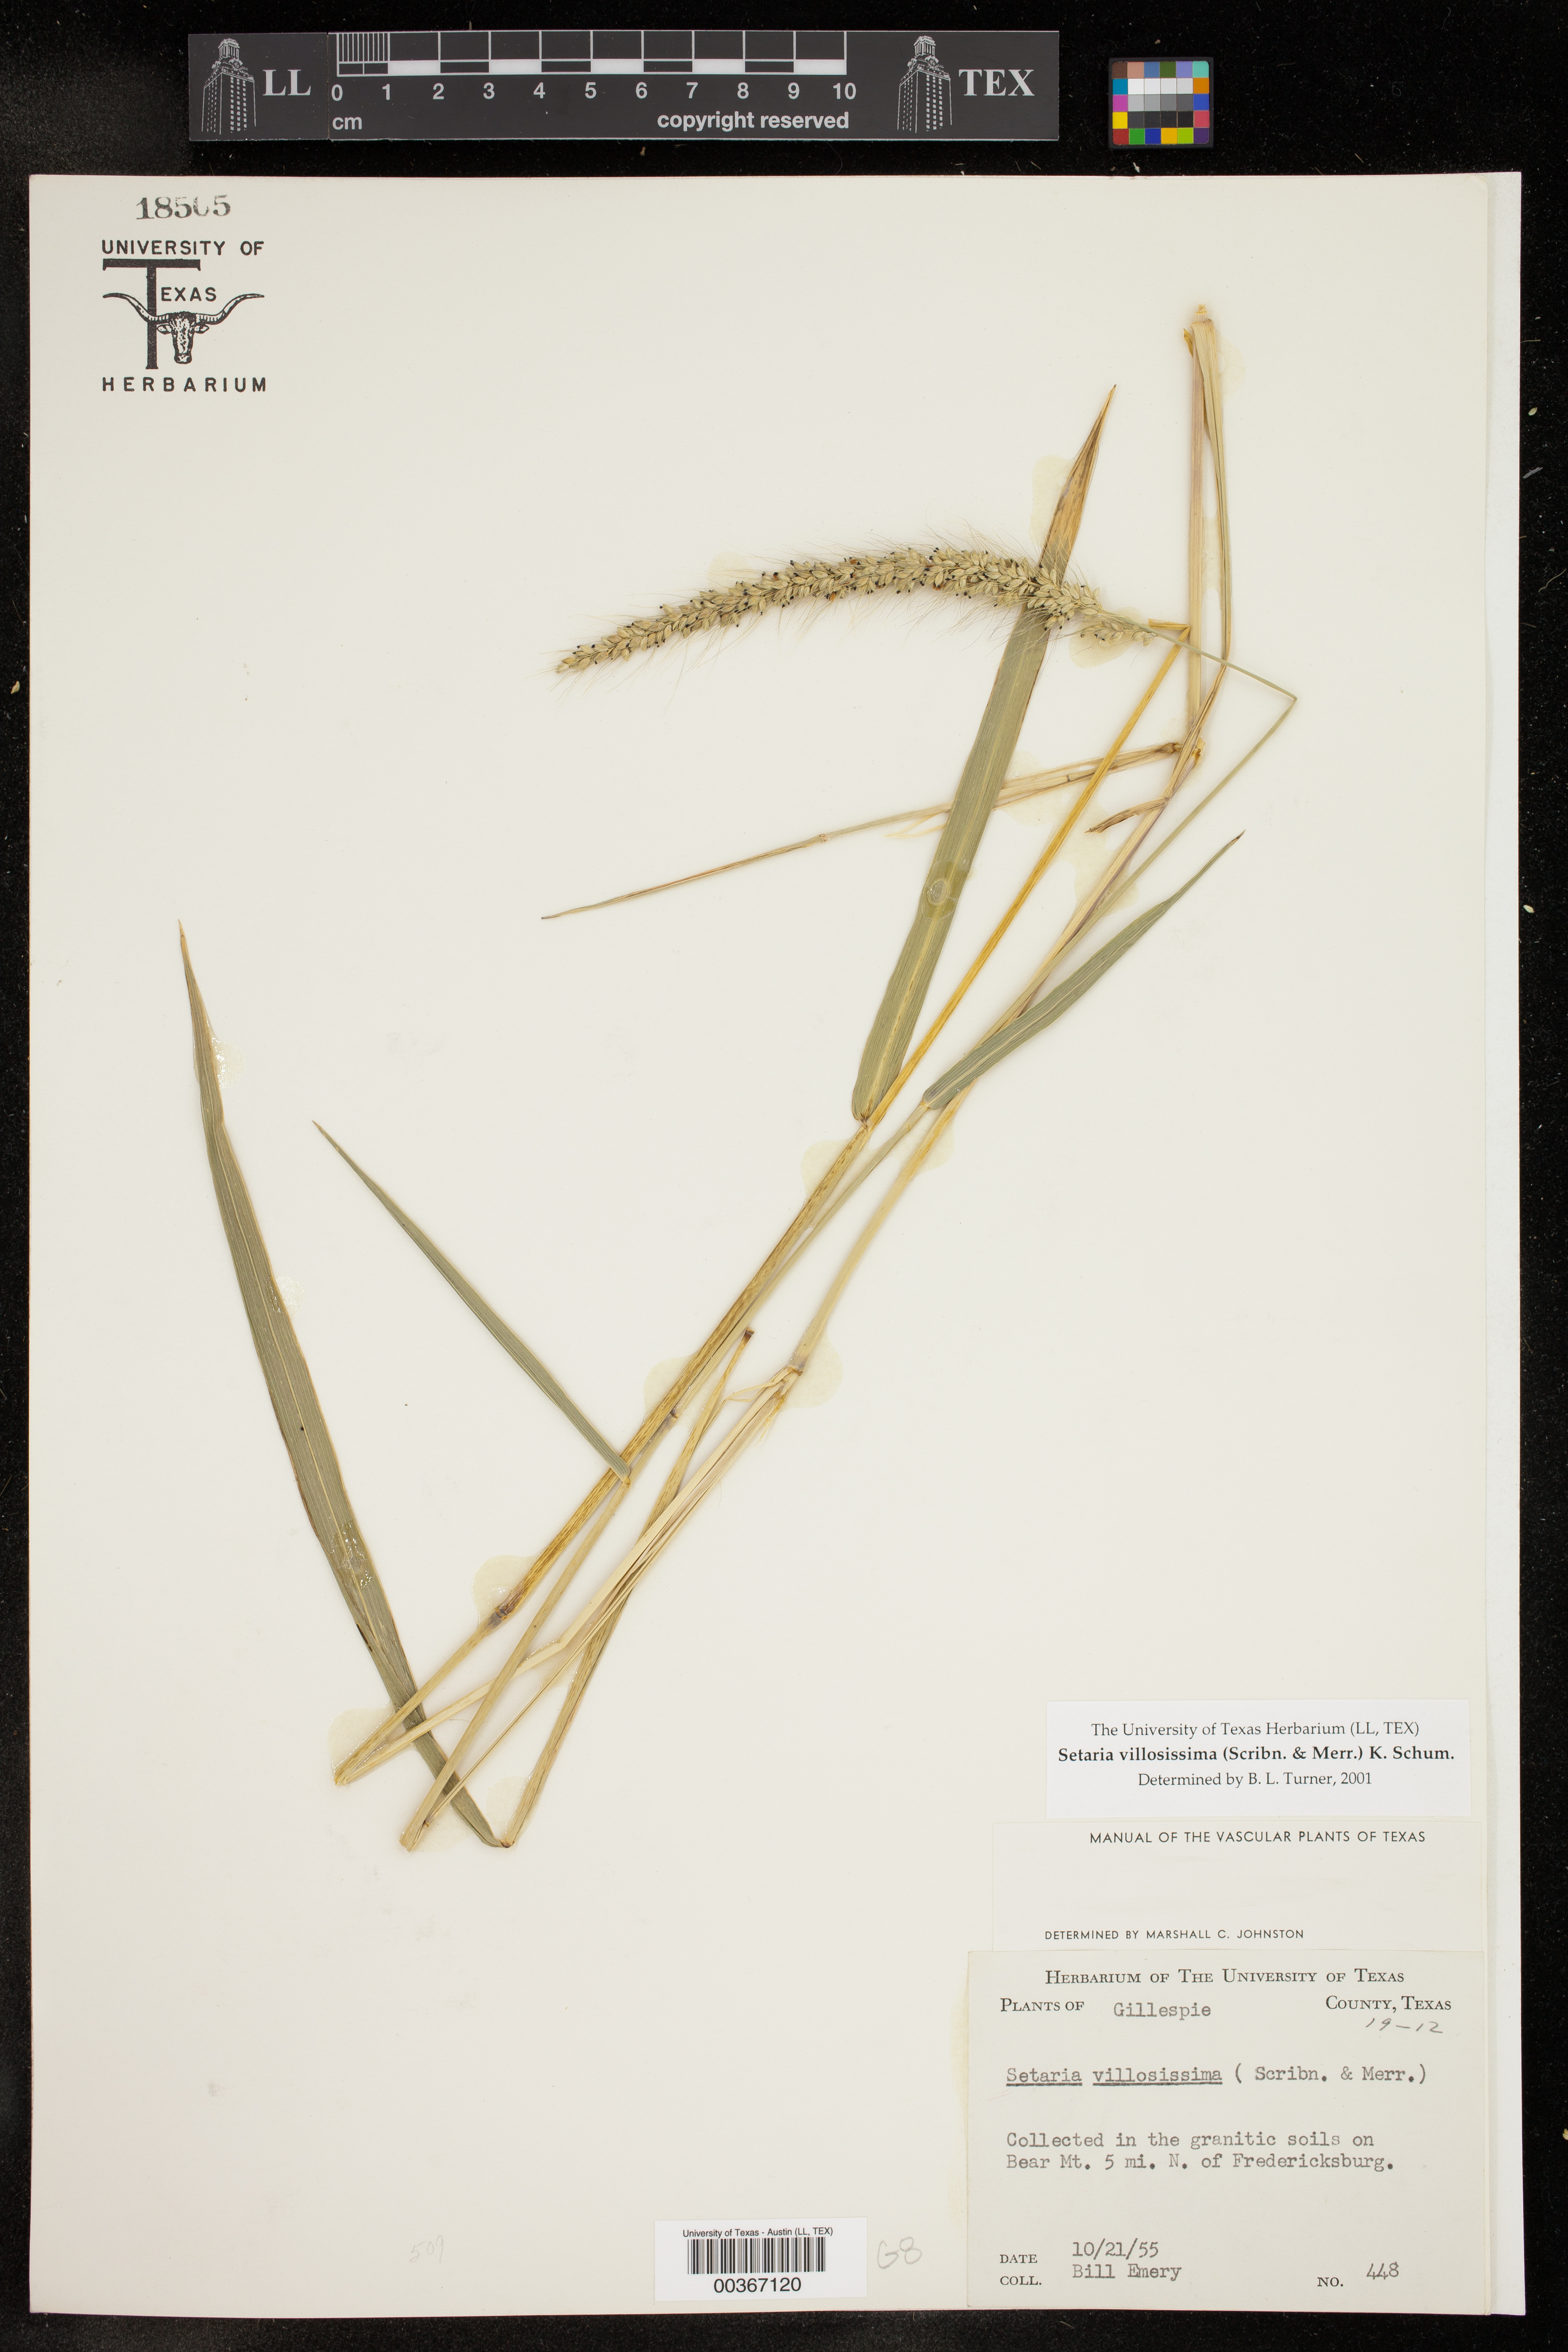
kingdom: Plantae
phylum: Tracheophyta
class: Liliopsida
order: Poales
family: Poaceae
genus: Setaria
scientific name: Setaria villosissima
